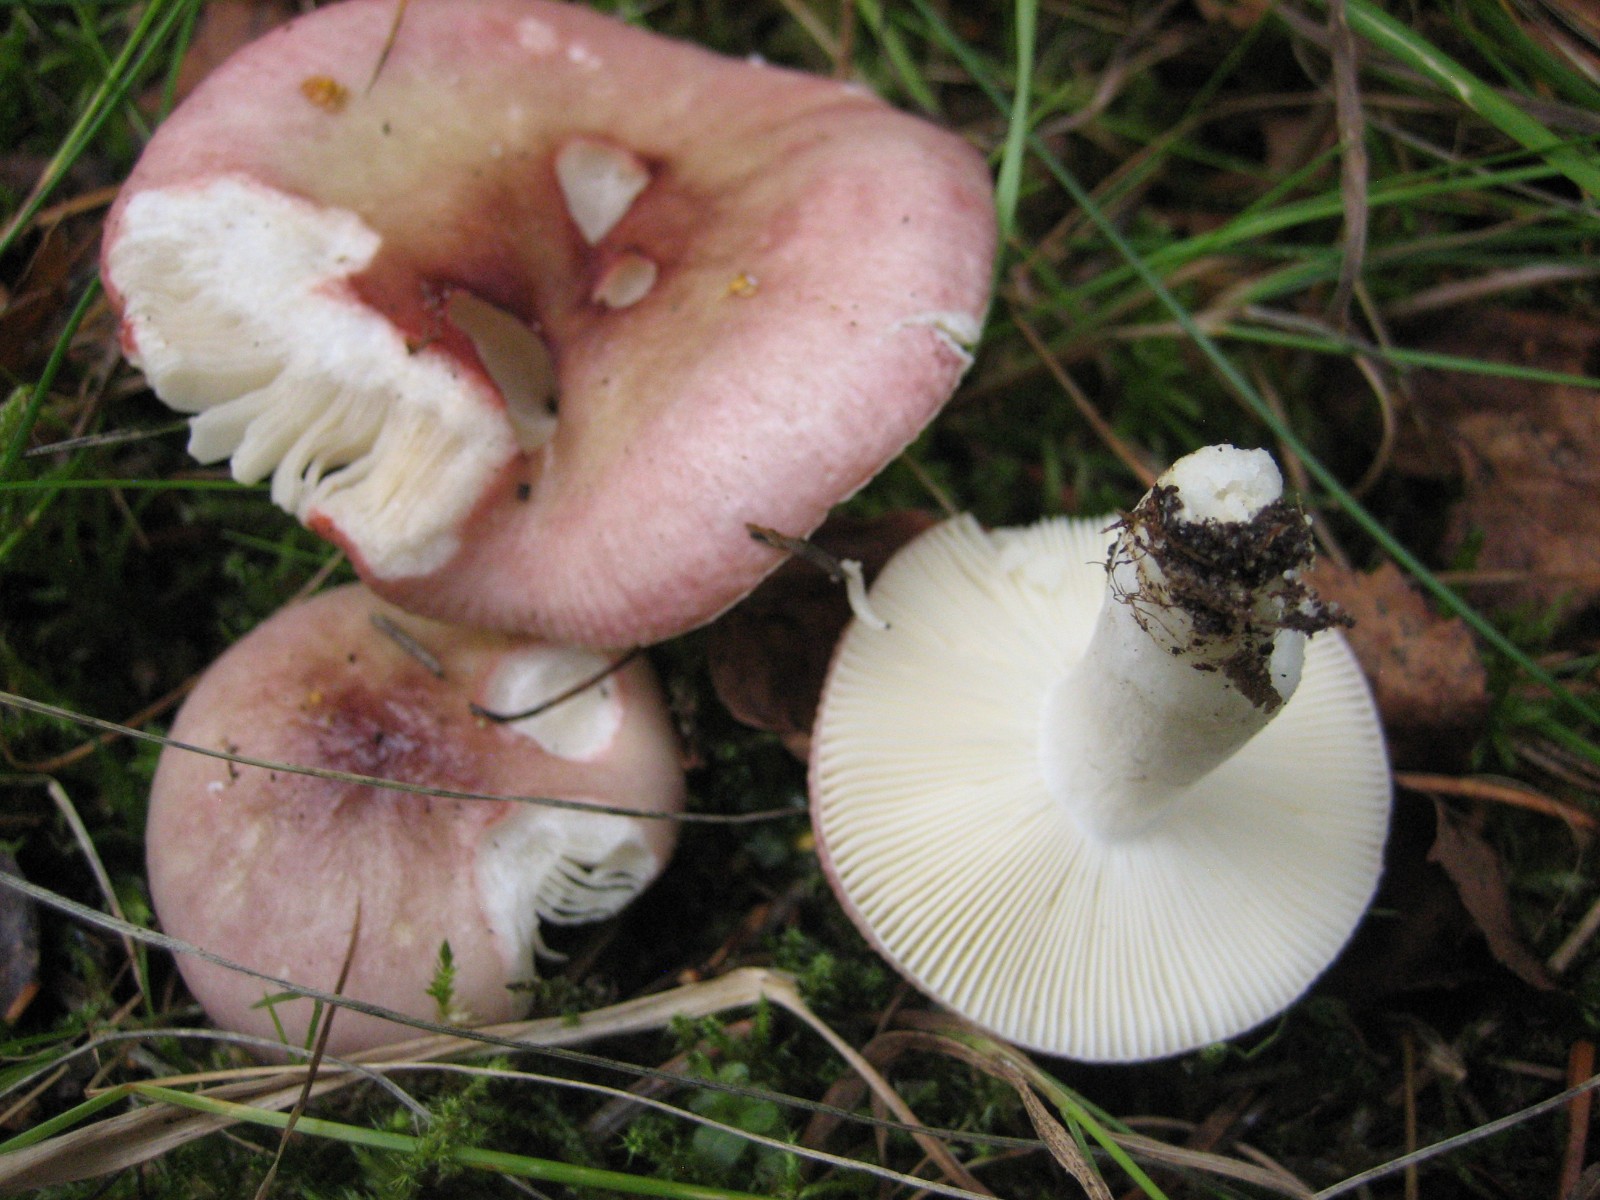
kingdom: Fungi
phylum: Basidiomycota
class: Agaricomycetes
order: Russulales
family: Russulaceae
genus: Russula
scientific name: Russula
